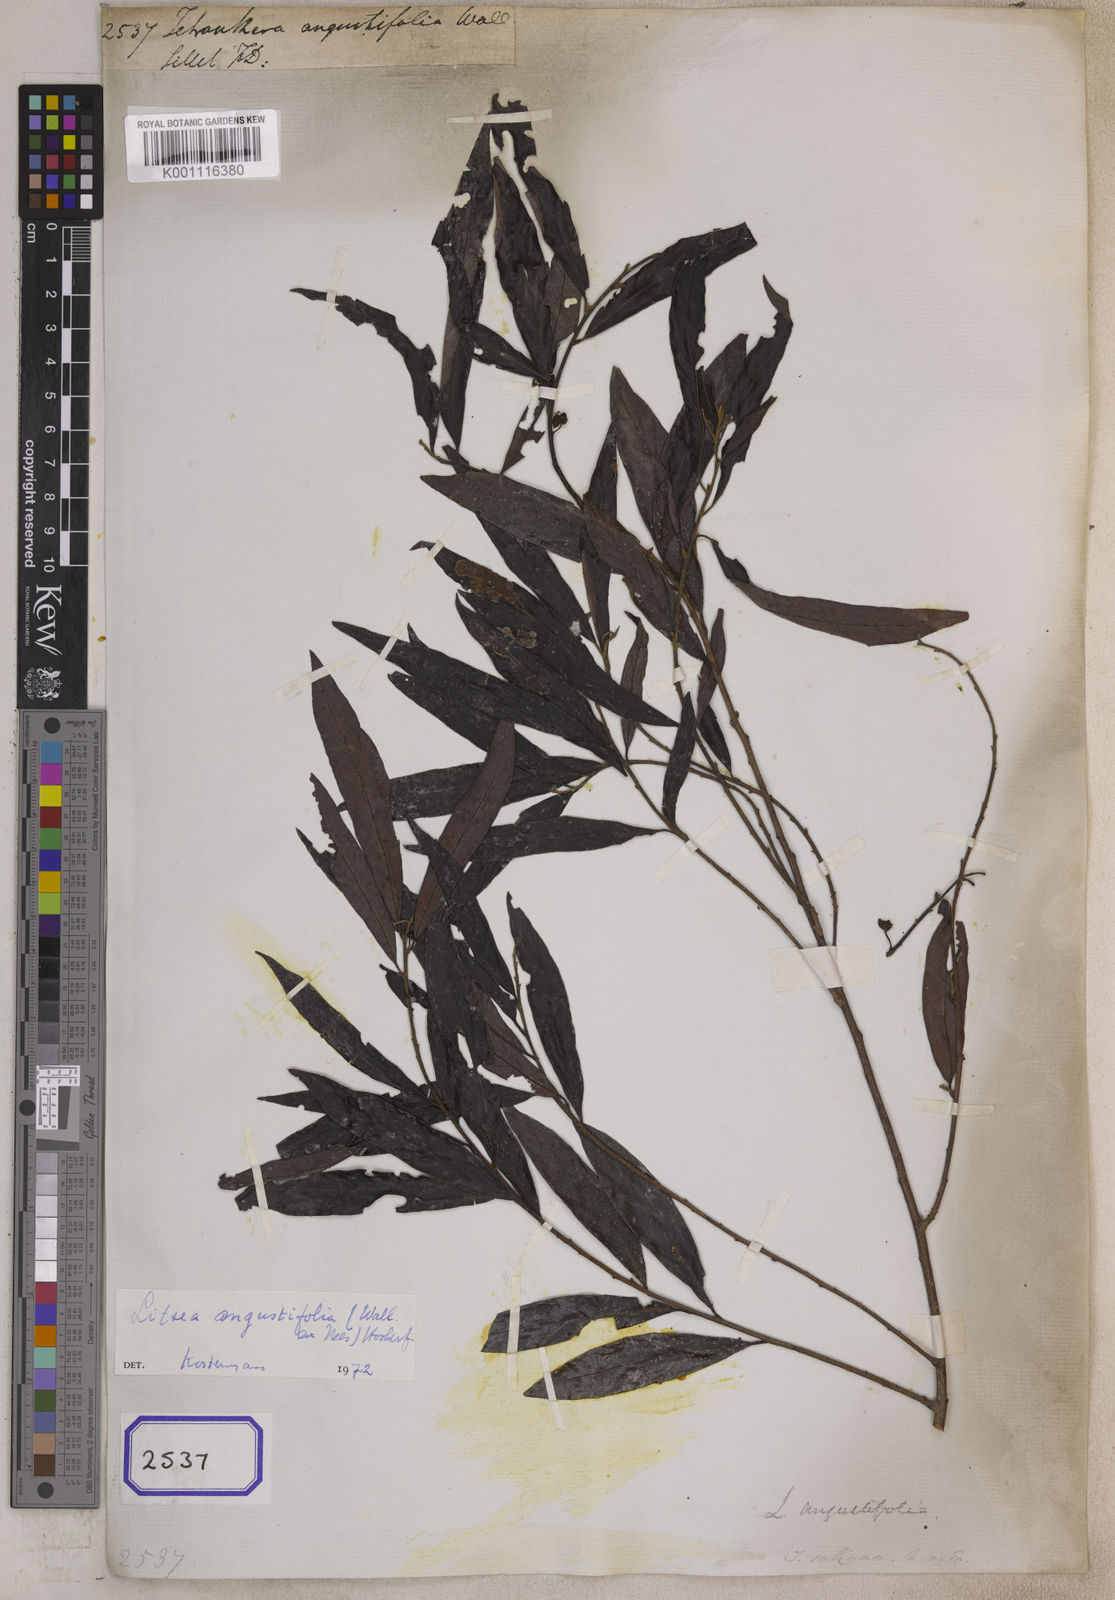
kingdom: Plantae
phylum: Tracheophyta
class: Magnoliopsida
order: Laurales
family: Lauraceae
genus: Actinodaphne
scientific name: Actinodaphne angustifolia
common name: Pisatree
